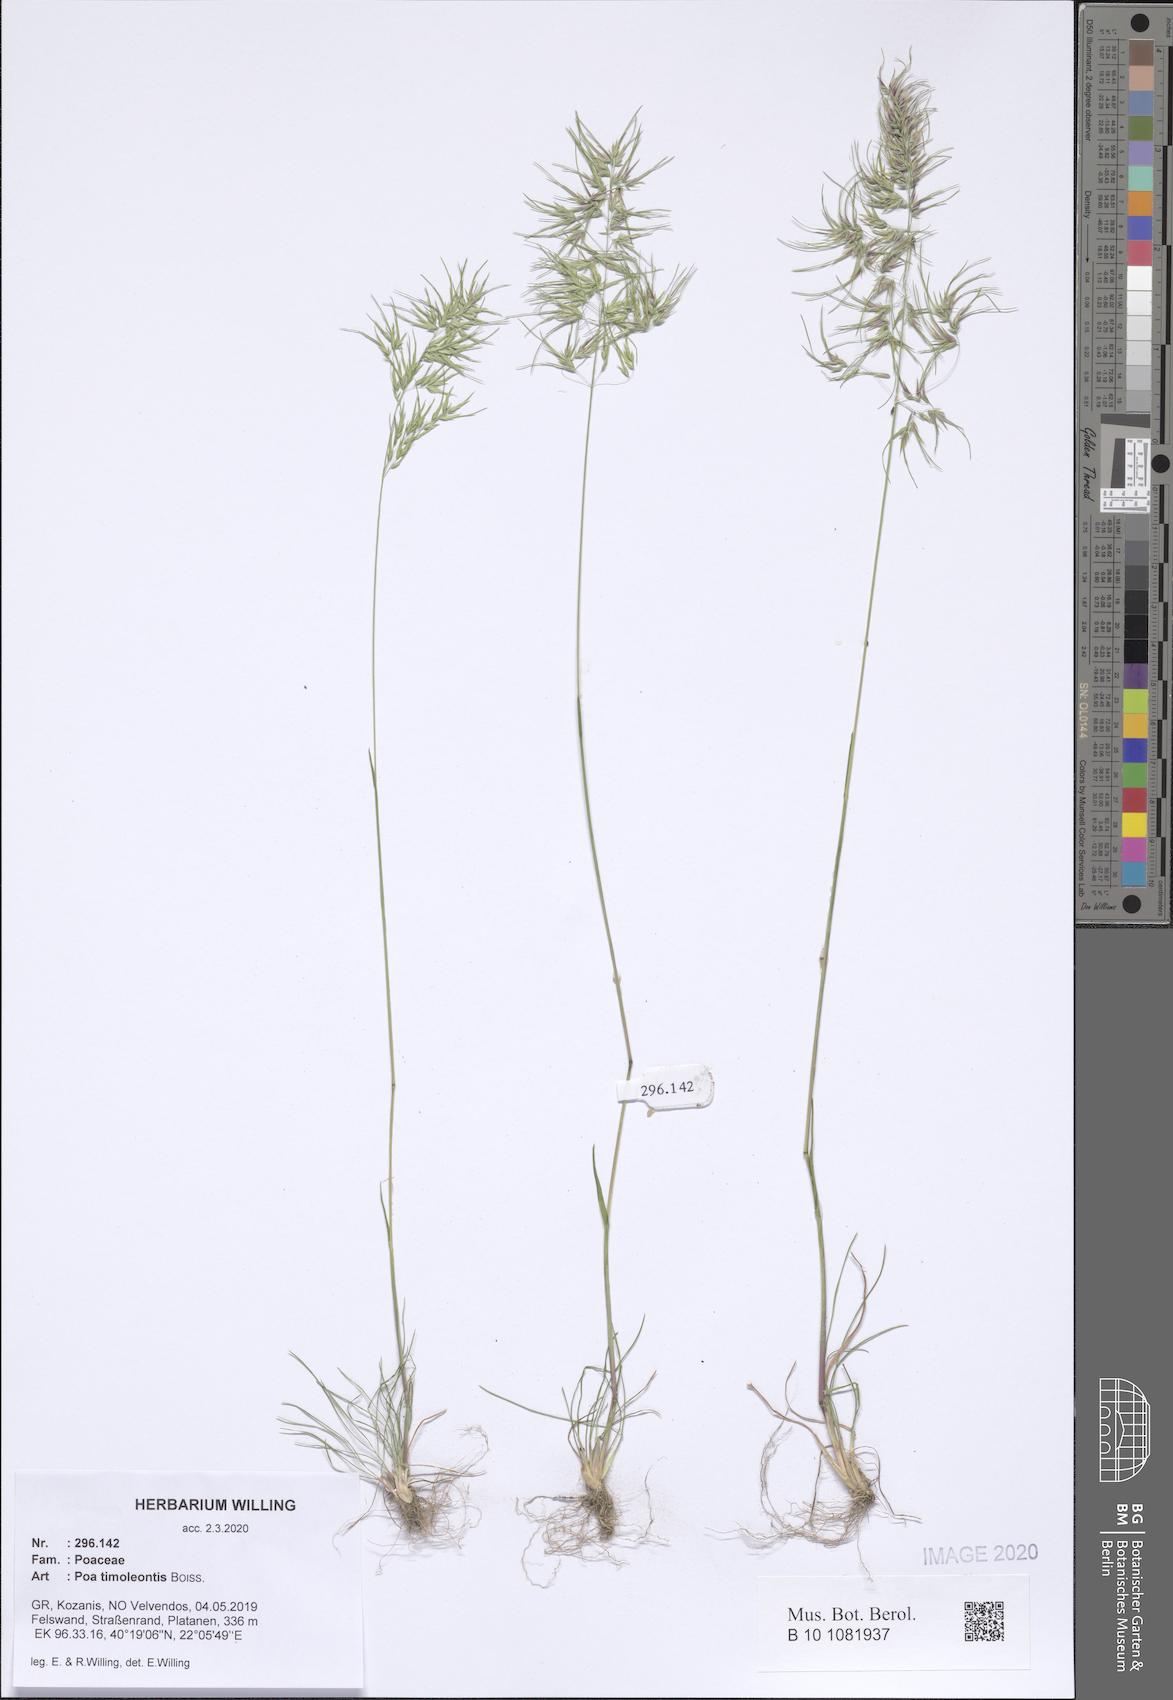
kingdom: Plantae
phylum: Tracheophyta
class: Liliopsida
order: Poales
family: Poaceae
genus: Poa
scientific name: Poa timoleontis
